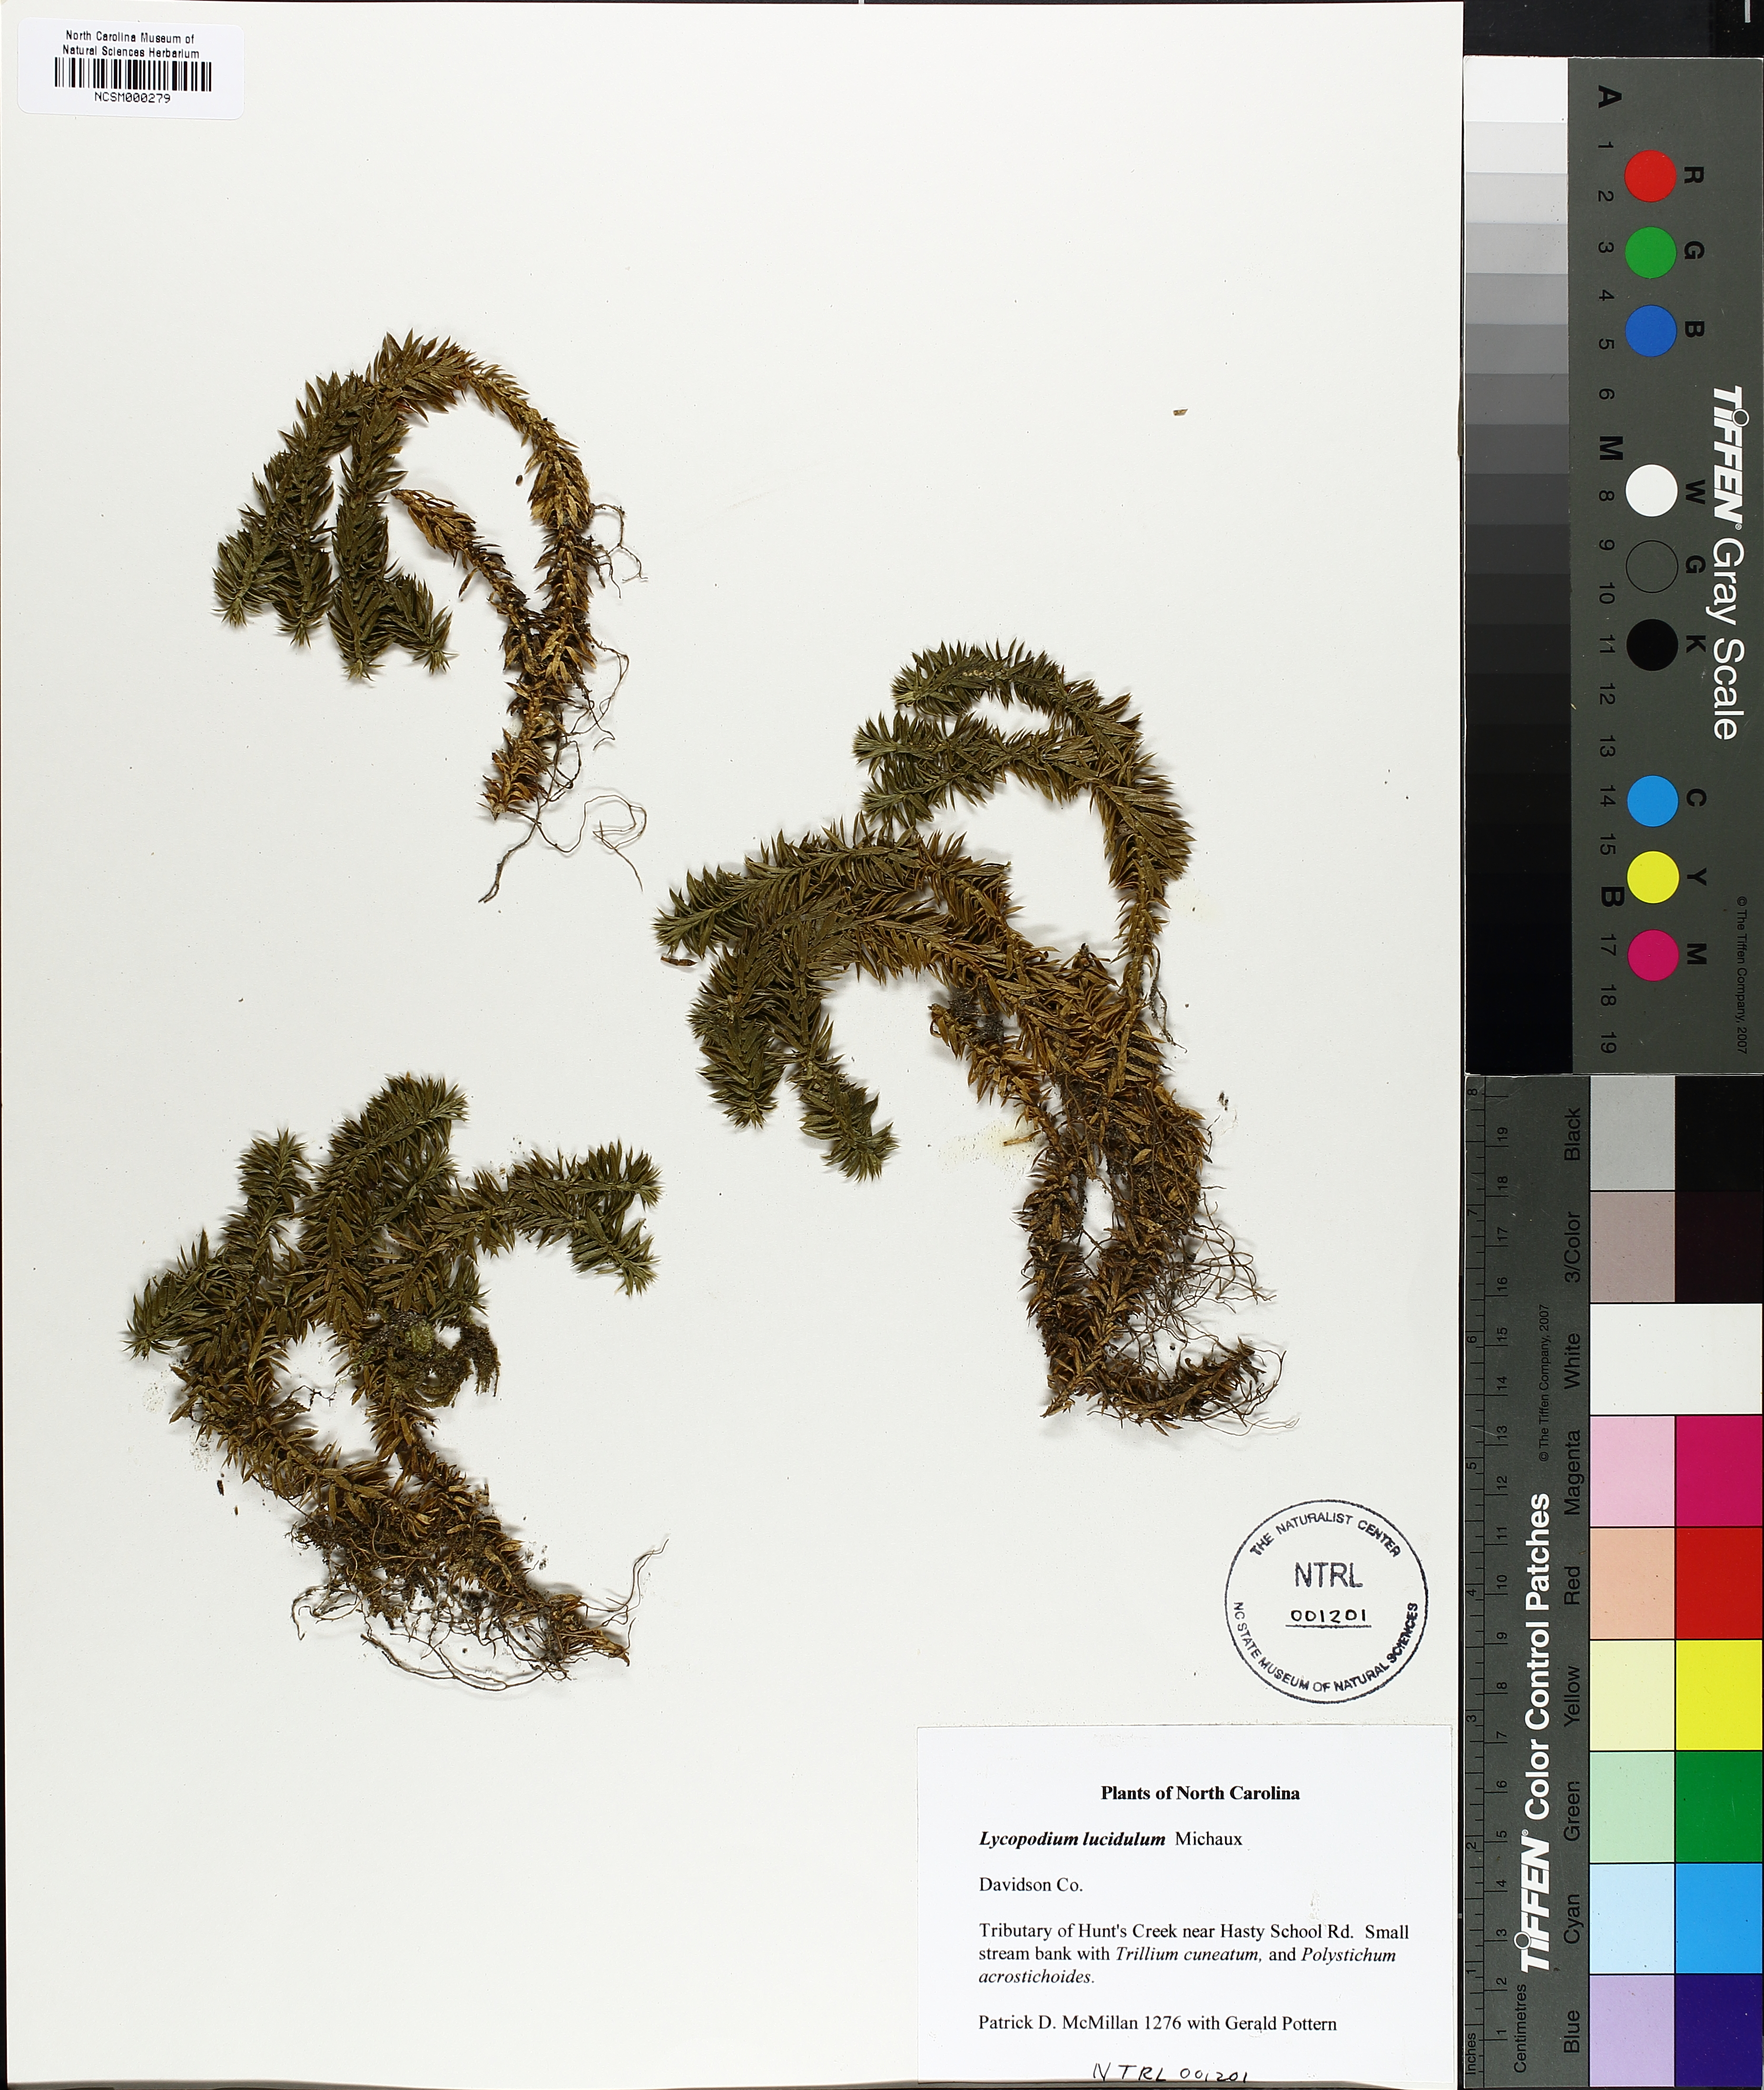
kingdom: Plantae
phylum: Tracheophyta
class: Lycopodiopsida
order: Lycopodiales
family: Lycopodiaceae
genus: Huperzia
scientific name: Huperzia lucidula
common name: Shining clubmoss
